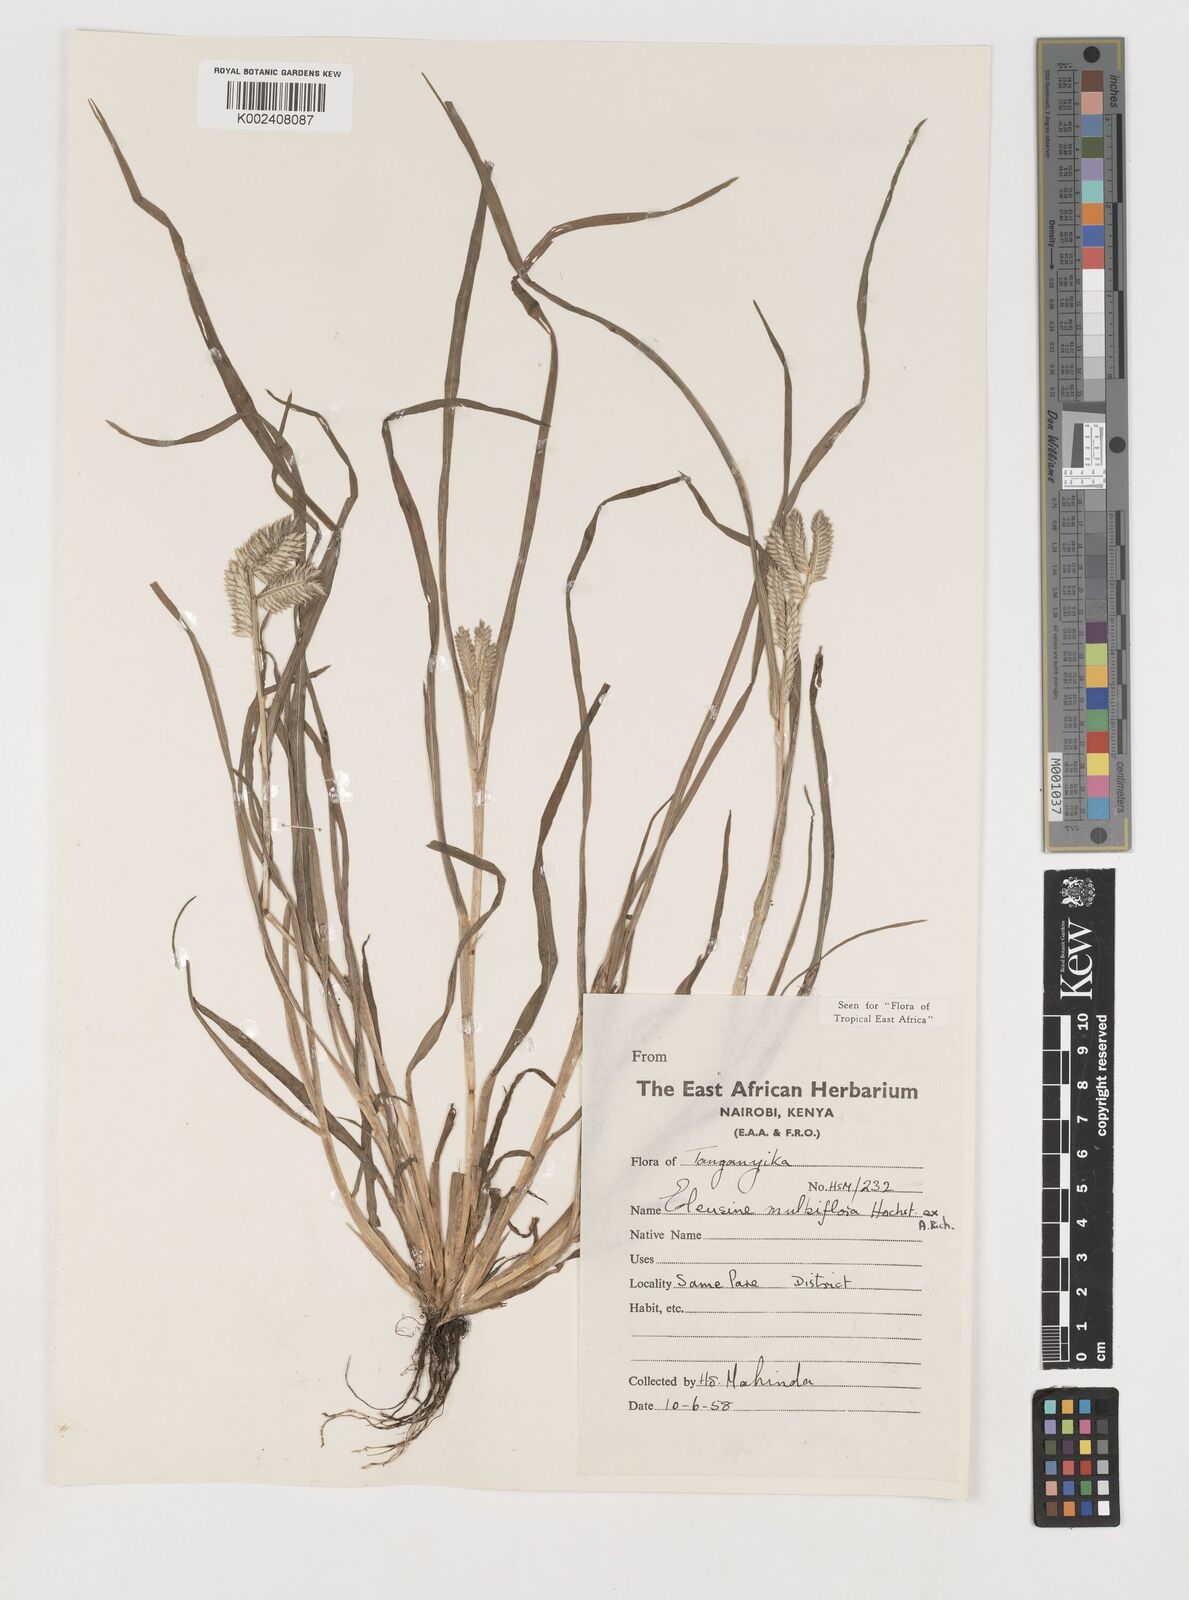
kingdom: Plantae
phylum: Tracheophyta
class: Liliopsida
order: Poales
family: Poaceae
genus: Eleusine
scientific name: Eleusine multiflora
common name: Fat-spiked yard-grass
